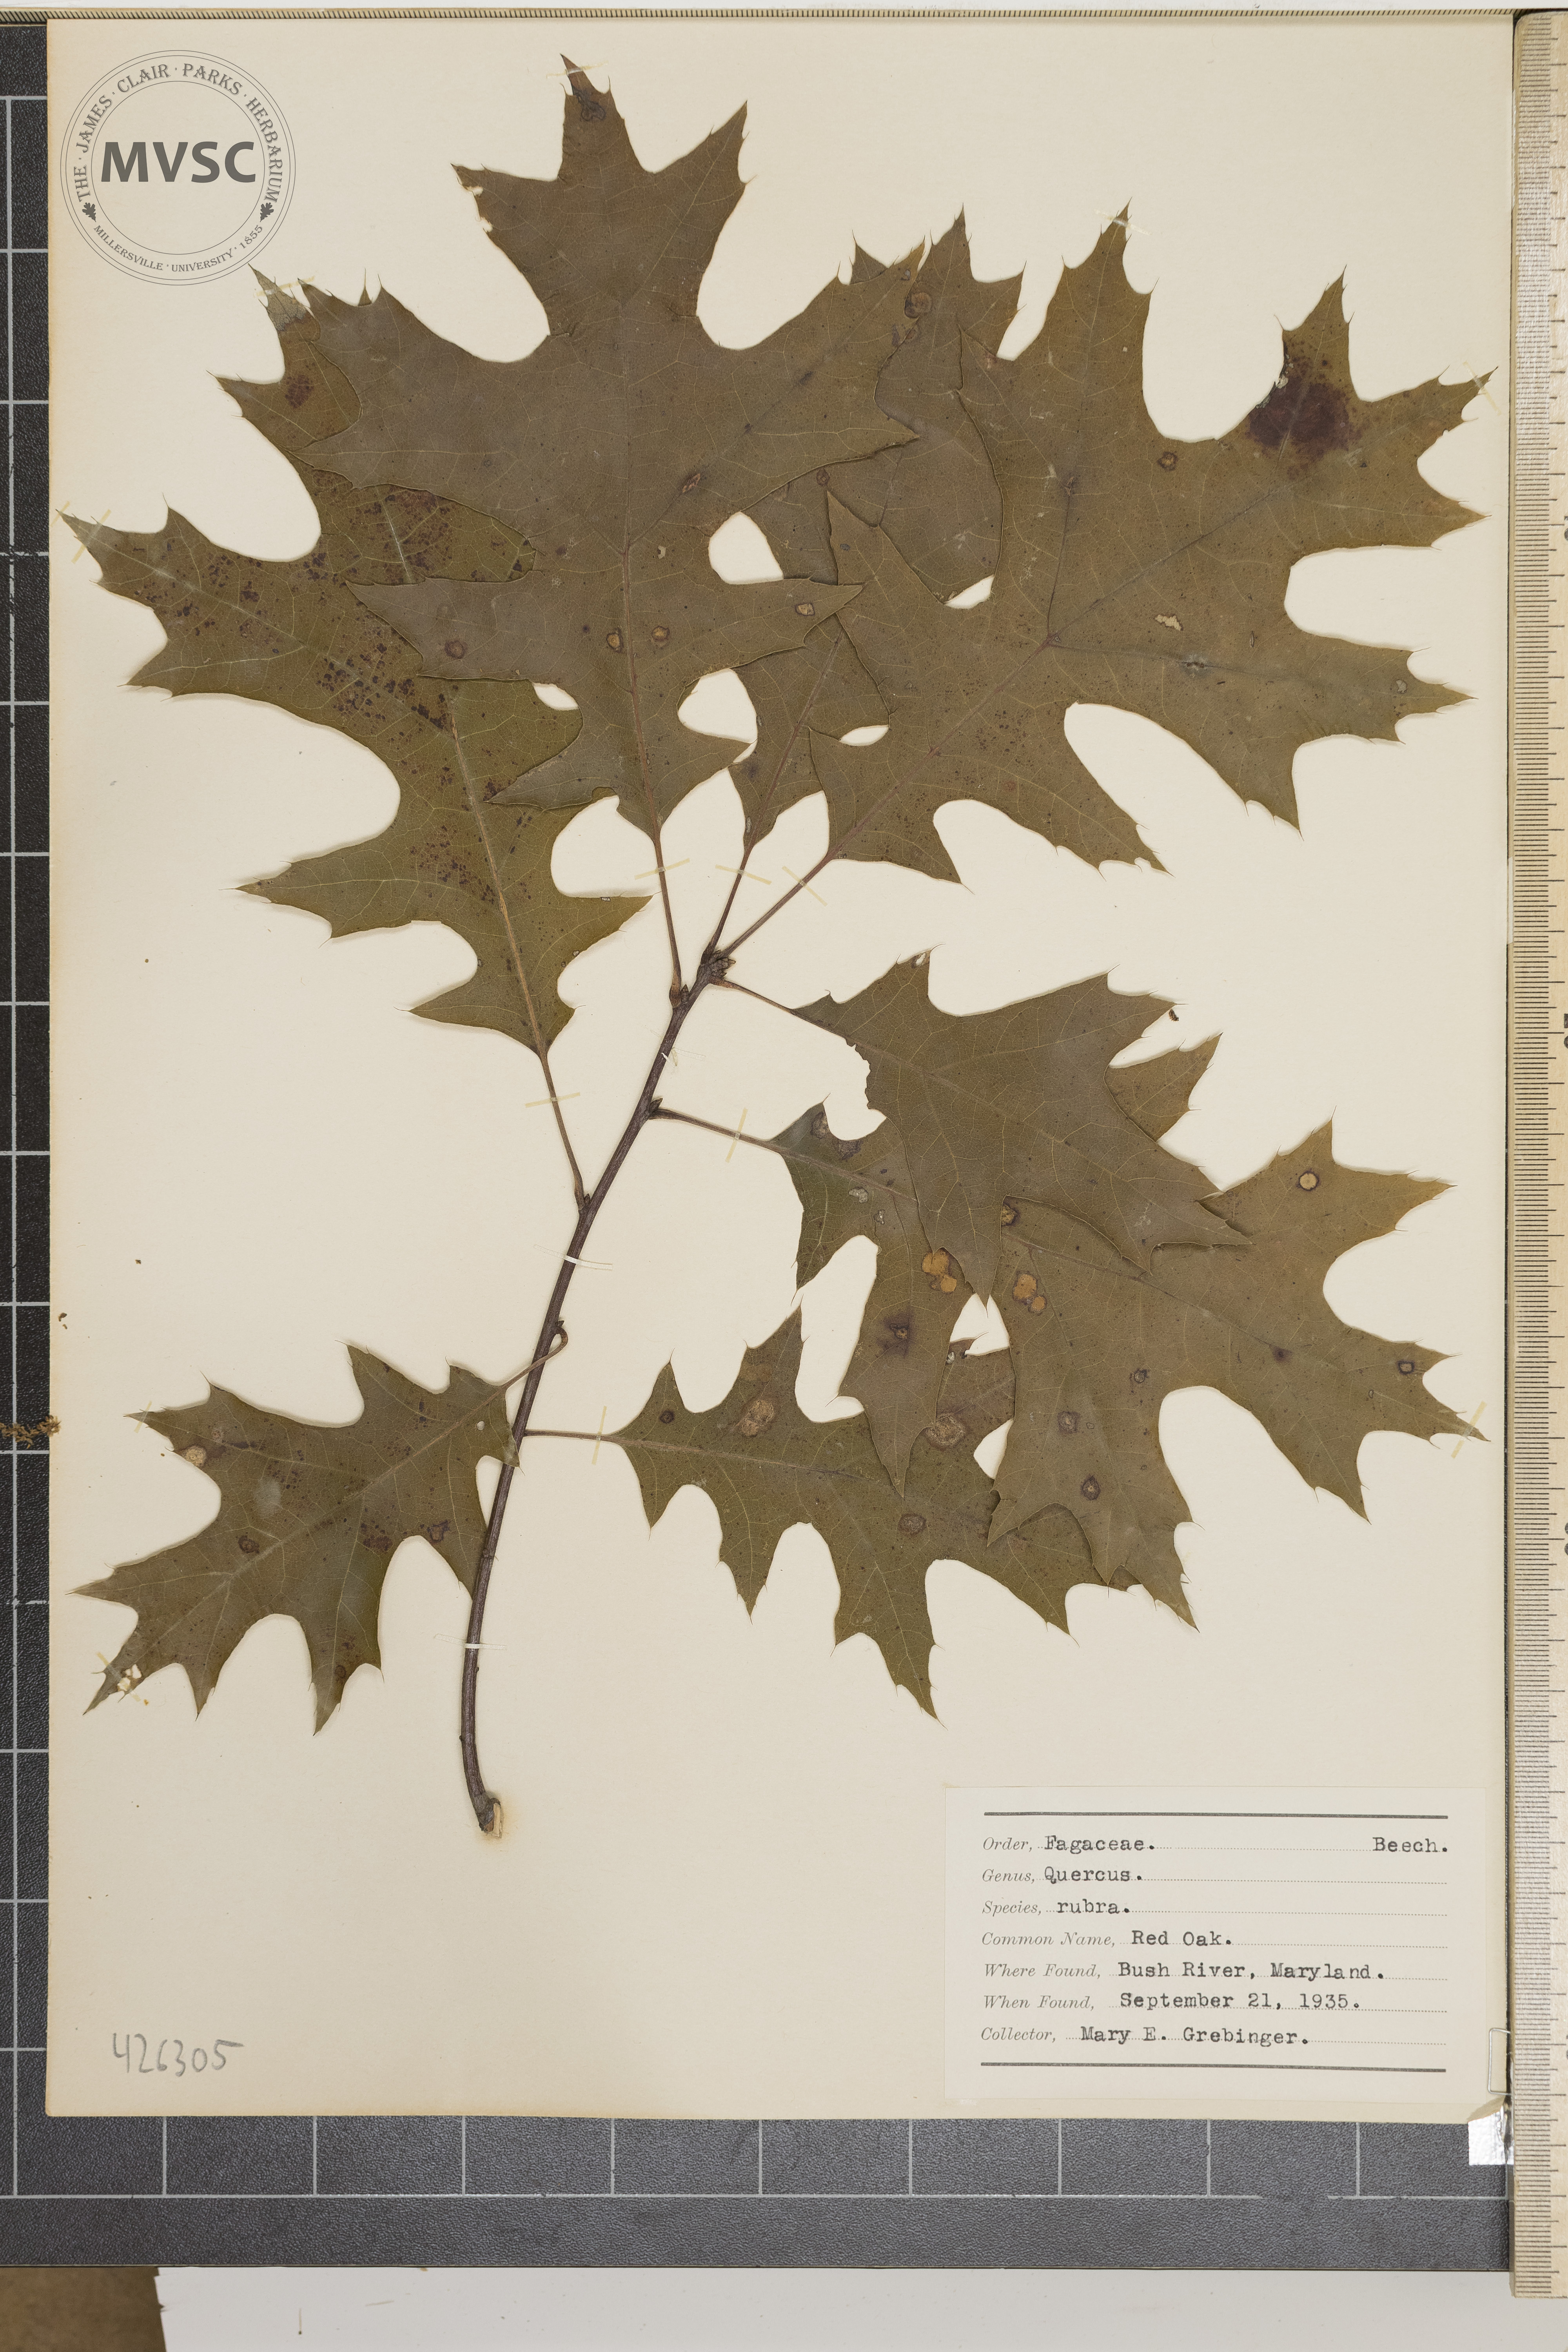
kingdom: Plantae
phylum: Tracheophyta
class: Magnoliopsida
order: Fagales
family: Fagaceae
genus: Quercus
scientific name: Quercus rubra
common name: Red oak
